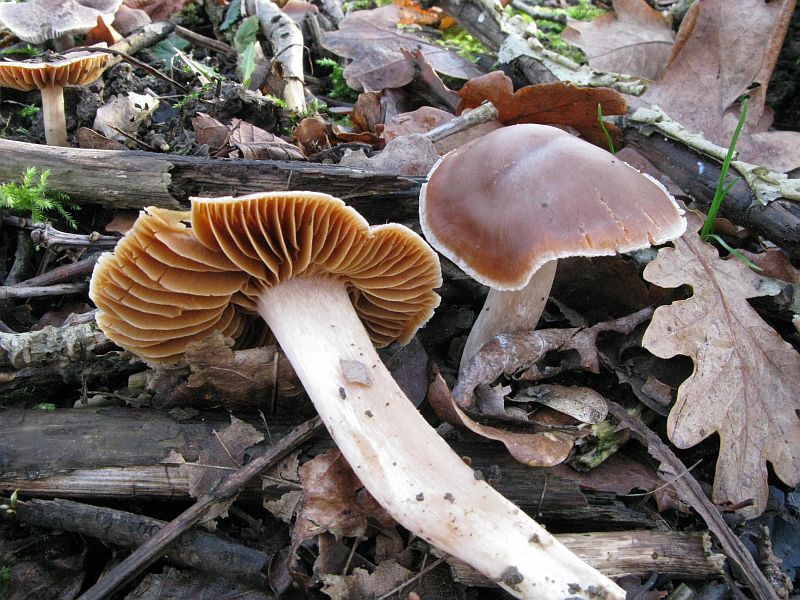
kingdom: Fungi
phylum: Basidiomycota
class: Agaricomycetes
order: Agaricales
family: Cortinariaceae
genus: Cortinarius
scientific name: Cortinarius
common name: jod-slørhat
